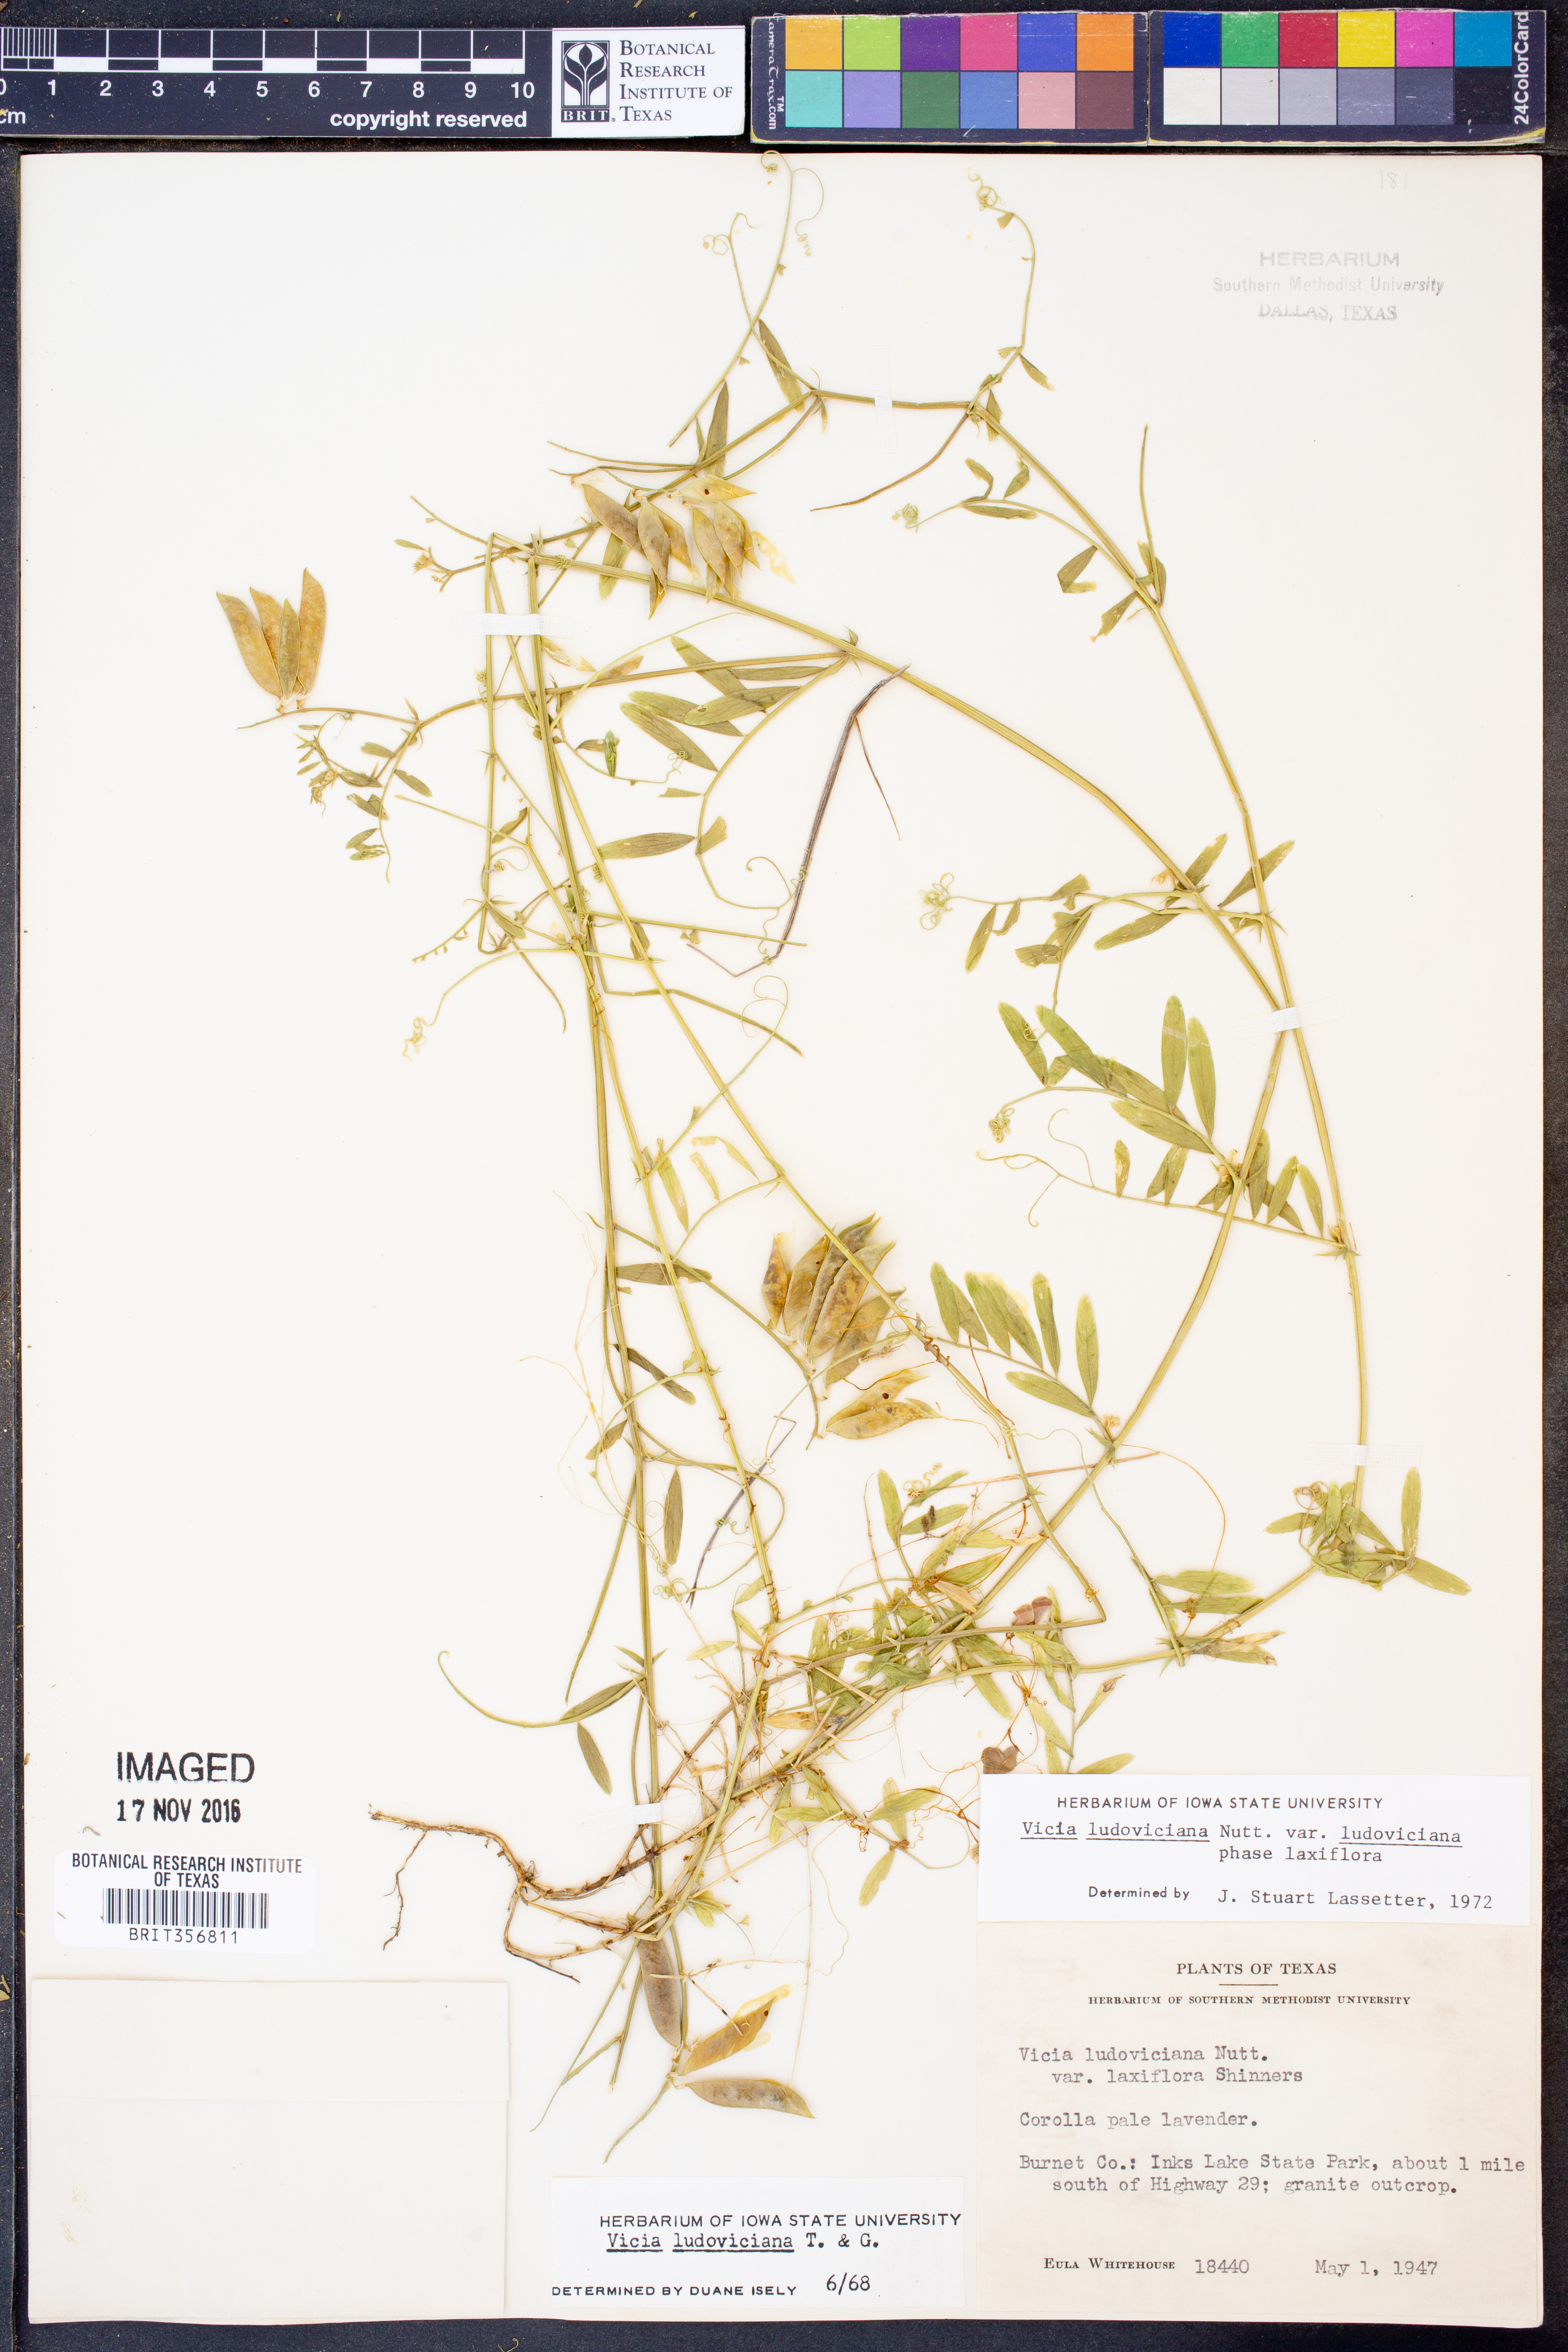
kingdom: Plantae
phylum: Tracheophyta
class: Magnoliopsida
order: Fabales
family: Fabaceae
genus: Vicia
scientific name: Vicia ludoviciana
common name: Louisiana vetch
